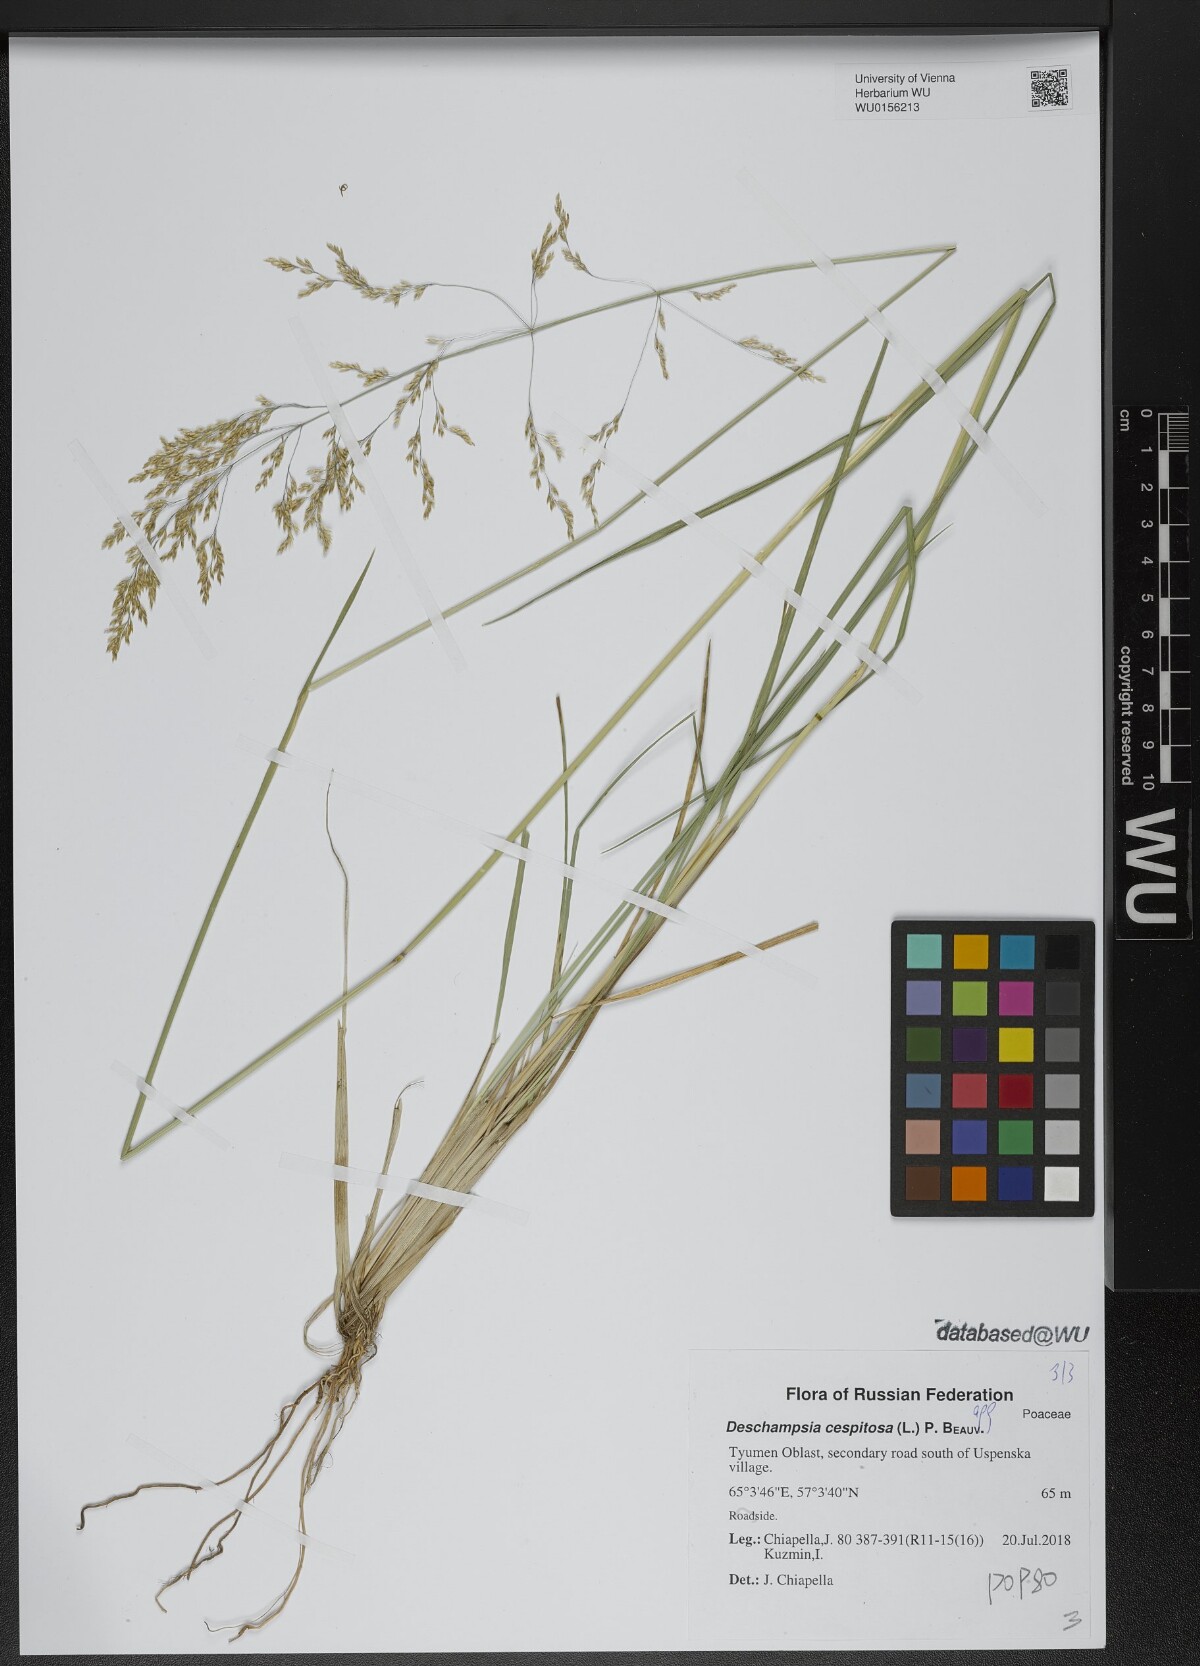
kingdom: Plantae
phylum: Tracheophyta
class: Liliopsida
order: Poales
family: Poaceae
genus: Deschampsia
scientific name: Deschampsia cespitosa
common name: Tufted hair-grass
